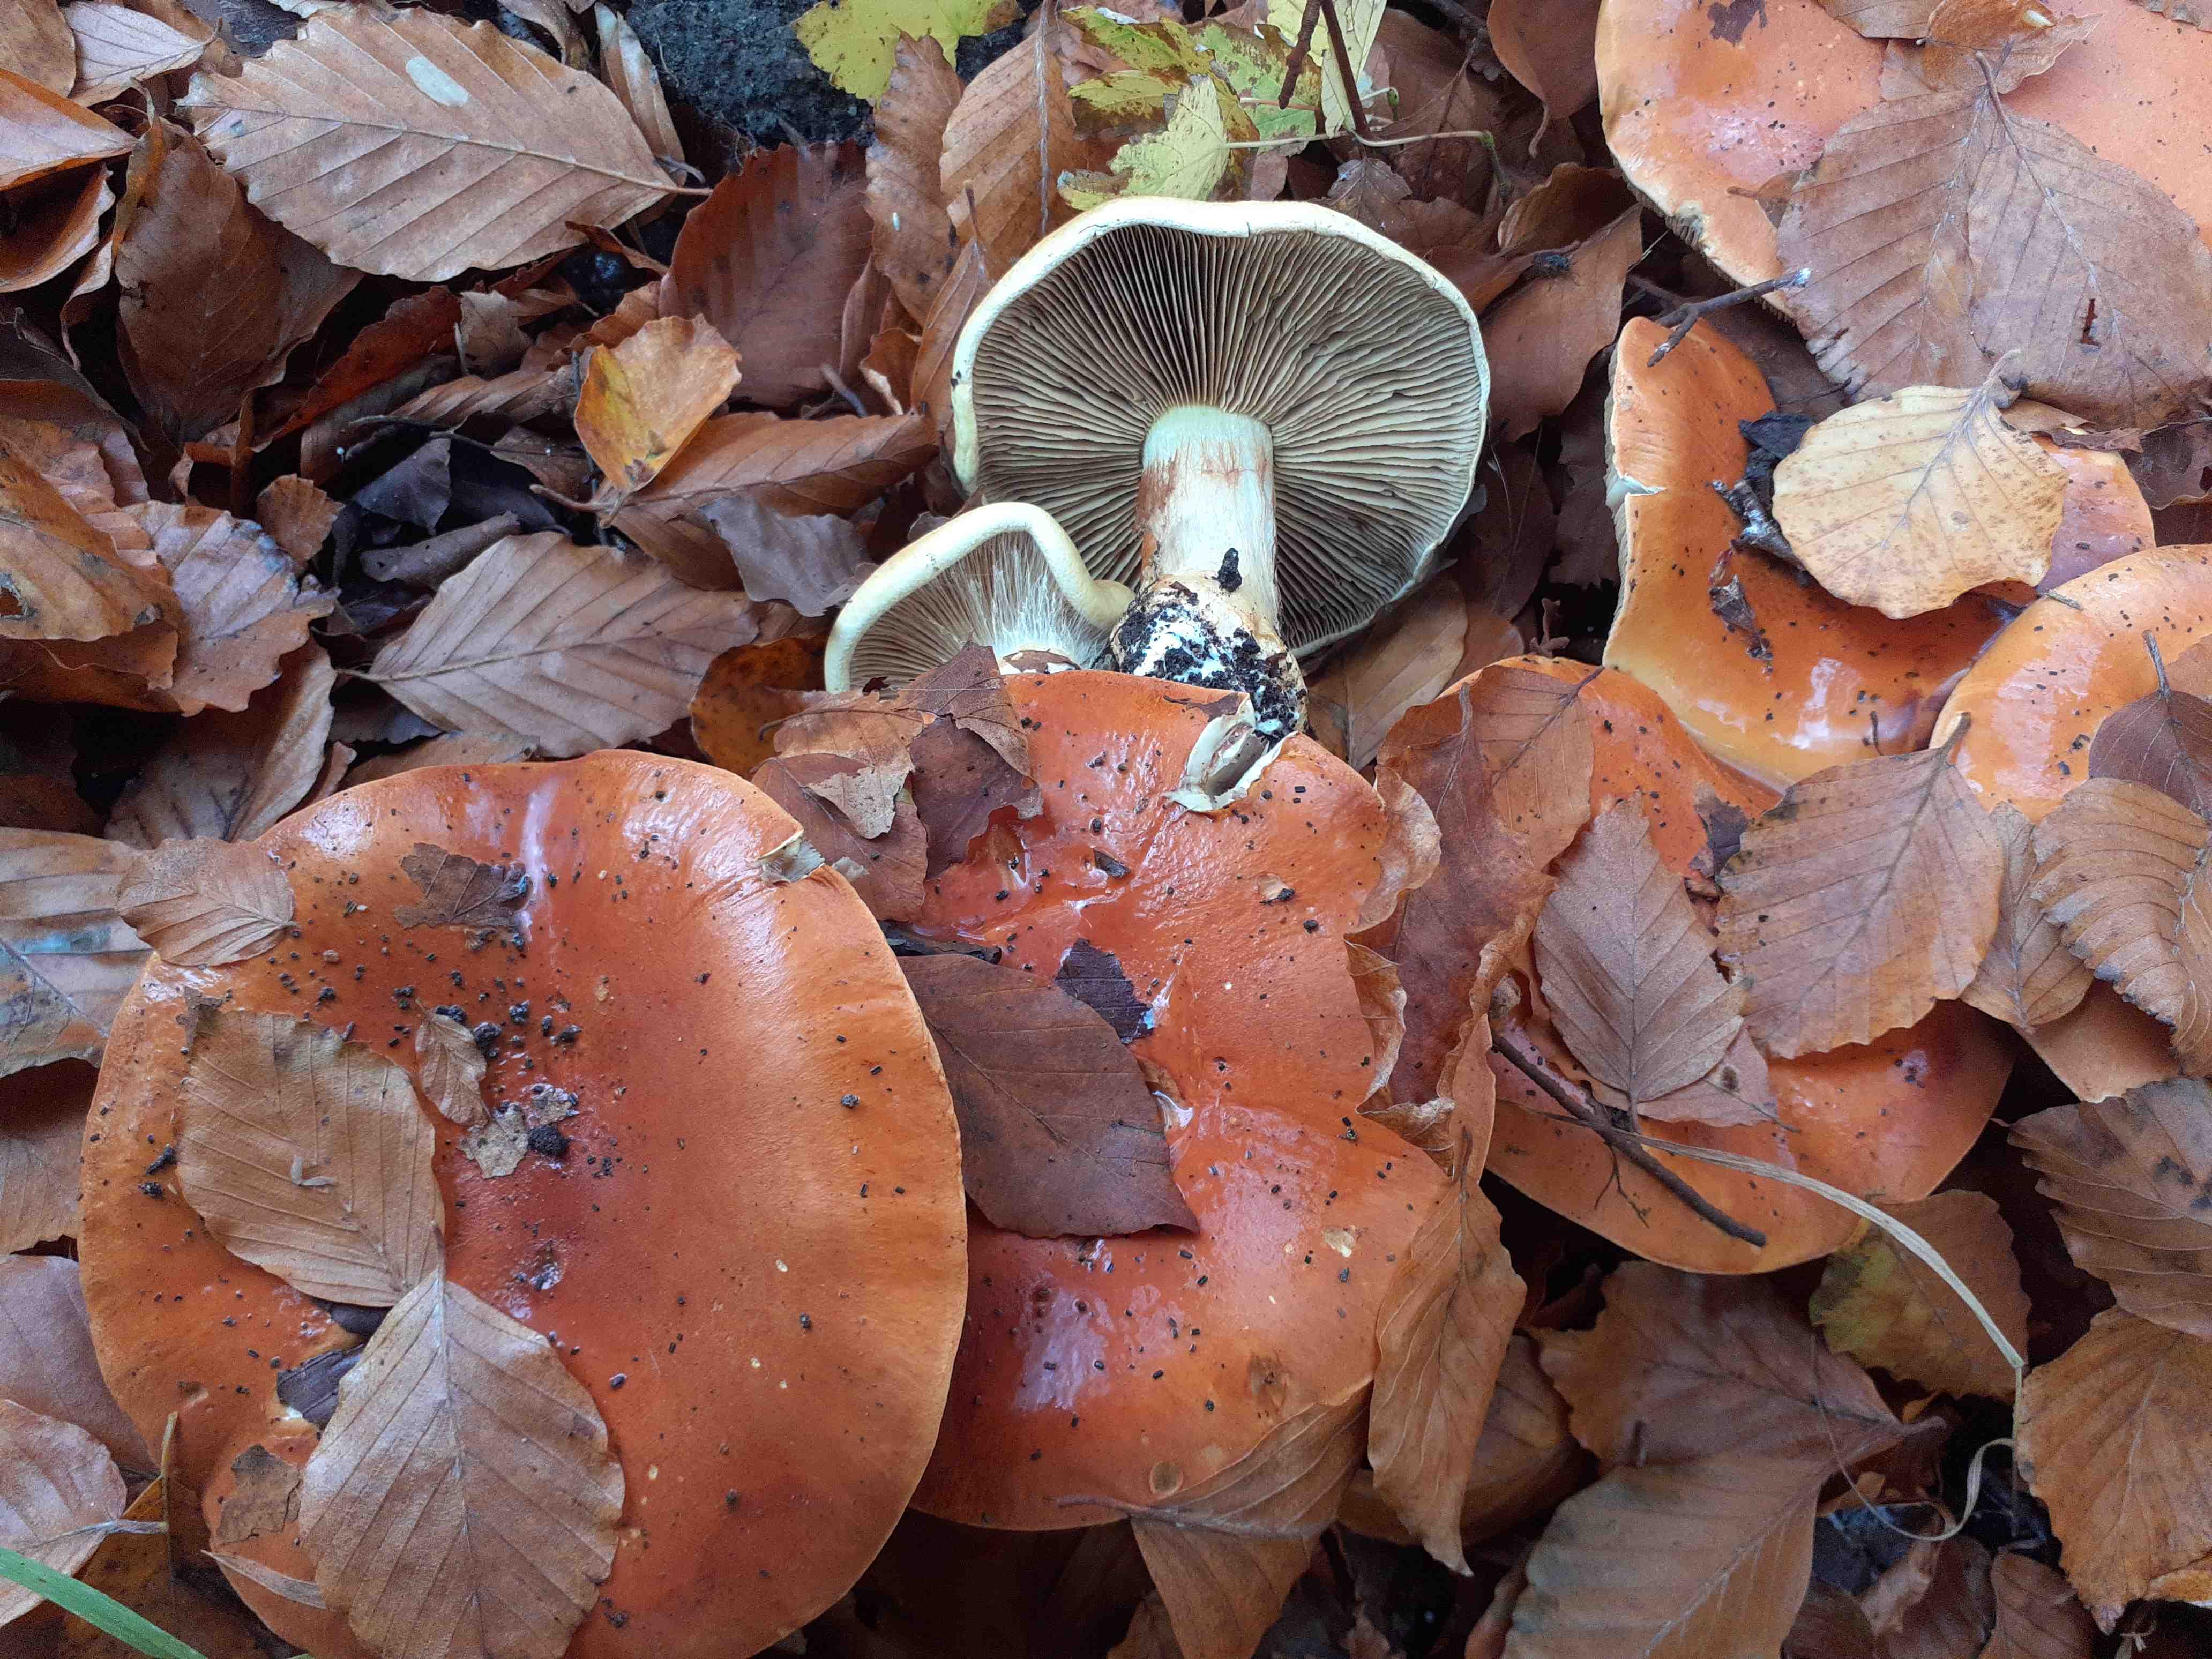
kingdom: Fungi
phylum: Basidiomycota
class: Agaricomycetes
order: Agaricales
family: Cortinariaceae
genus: Calonarius
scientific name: Calonarius elegantissimus
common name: orangegylden slørhat
